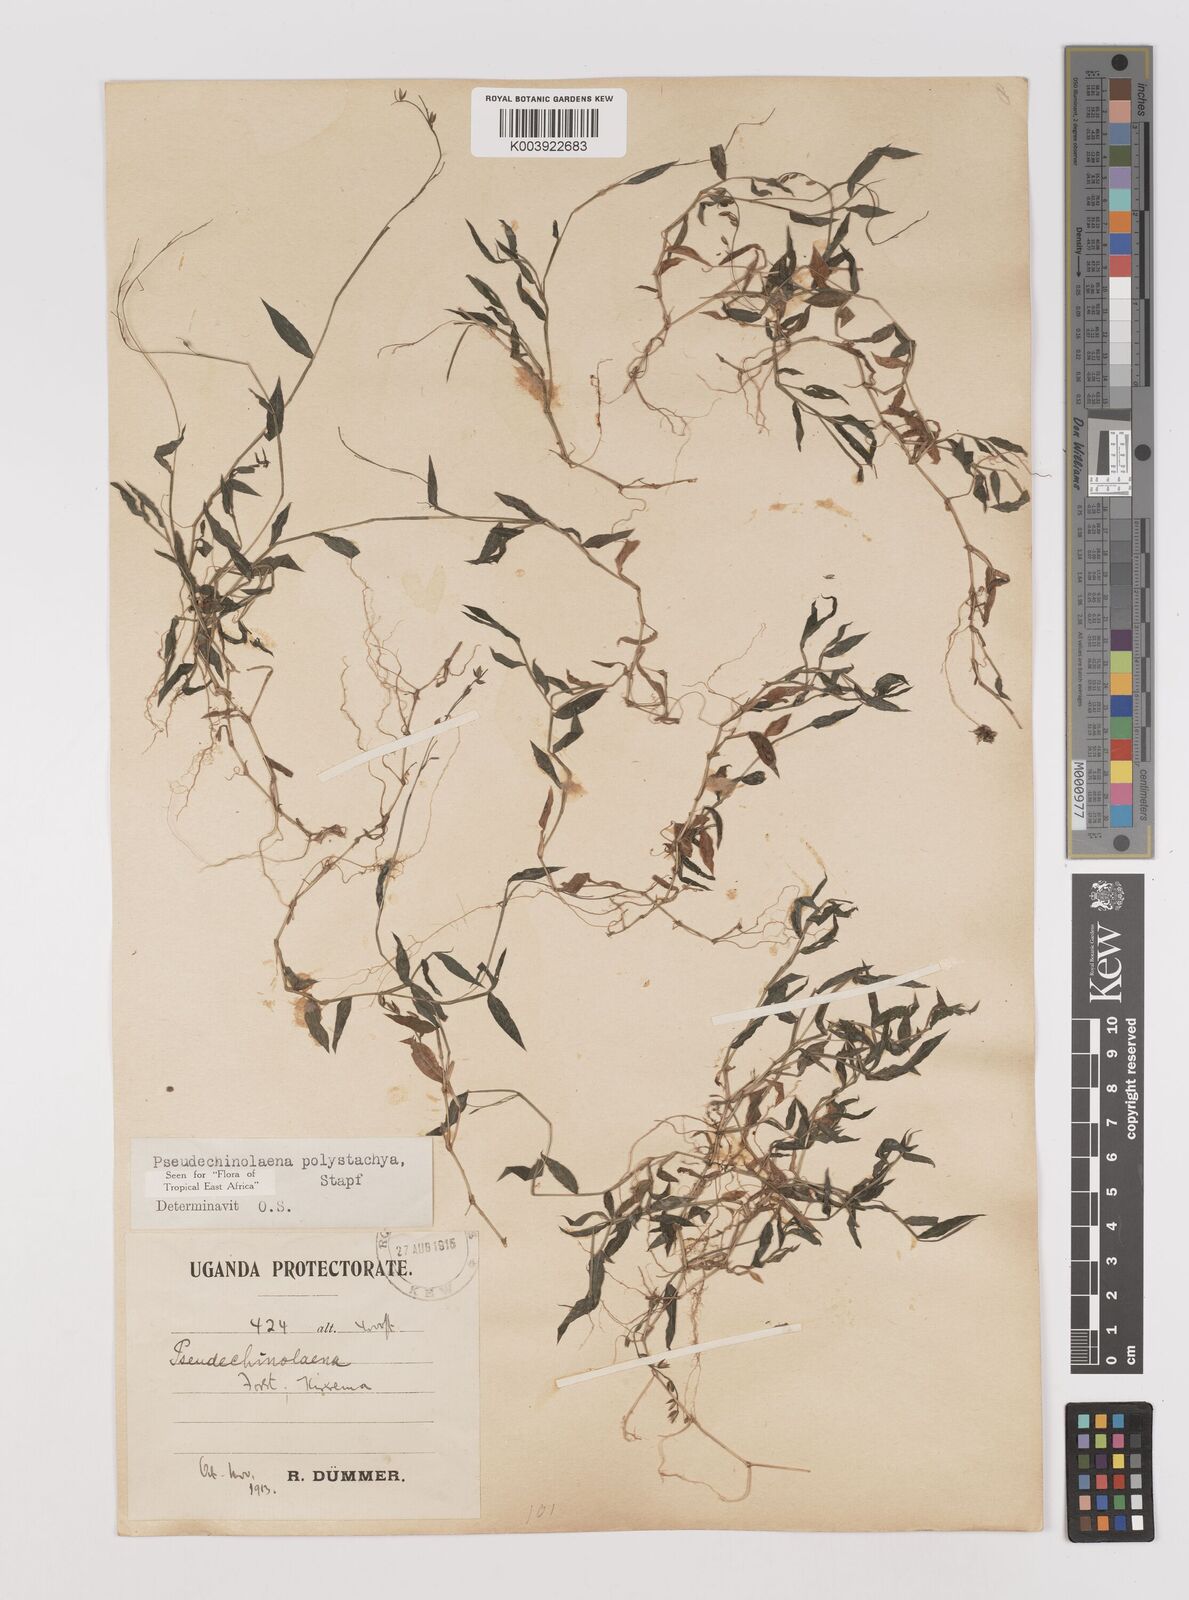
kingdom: Plantae
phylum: Tracheophyta
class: Liliopsida
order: Poales
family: Poaceae
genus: Pseudechinolaena
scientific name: Pseudechinolaena polystachya
